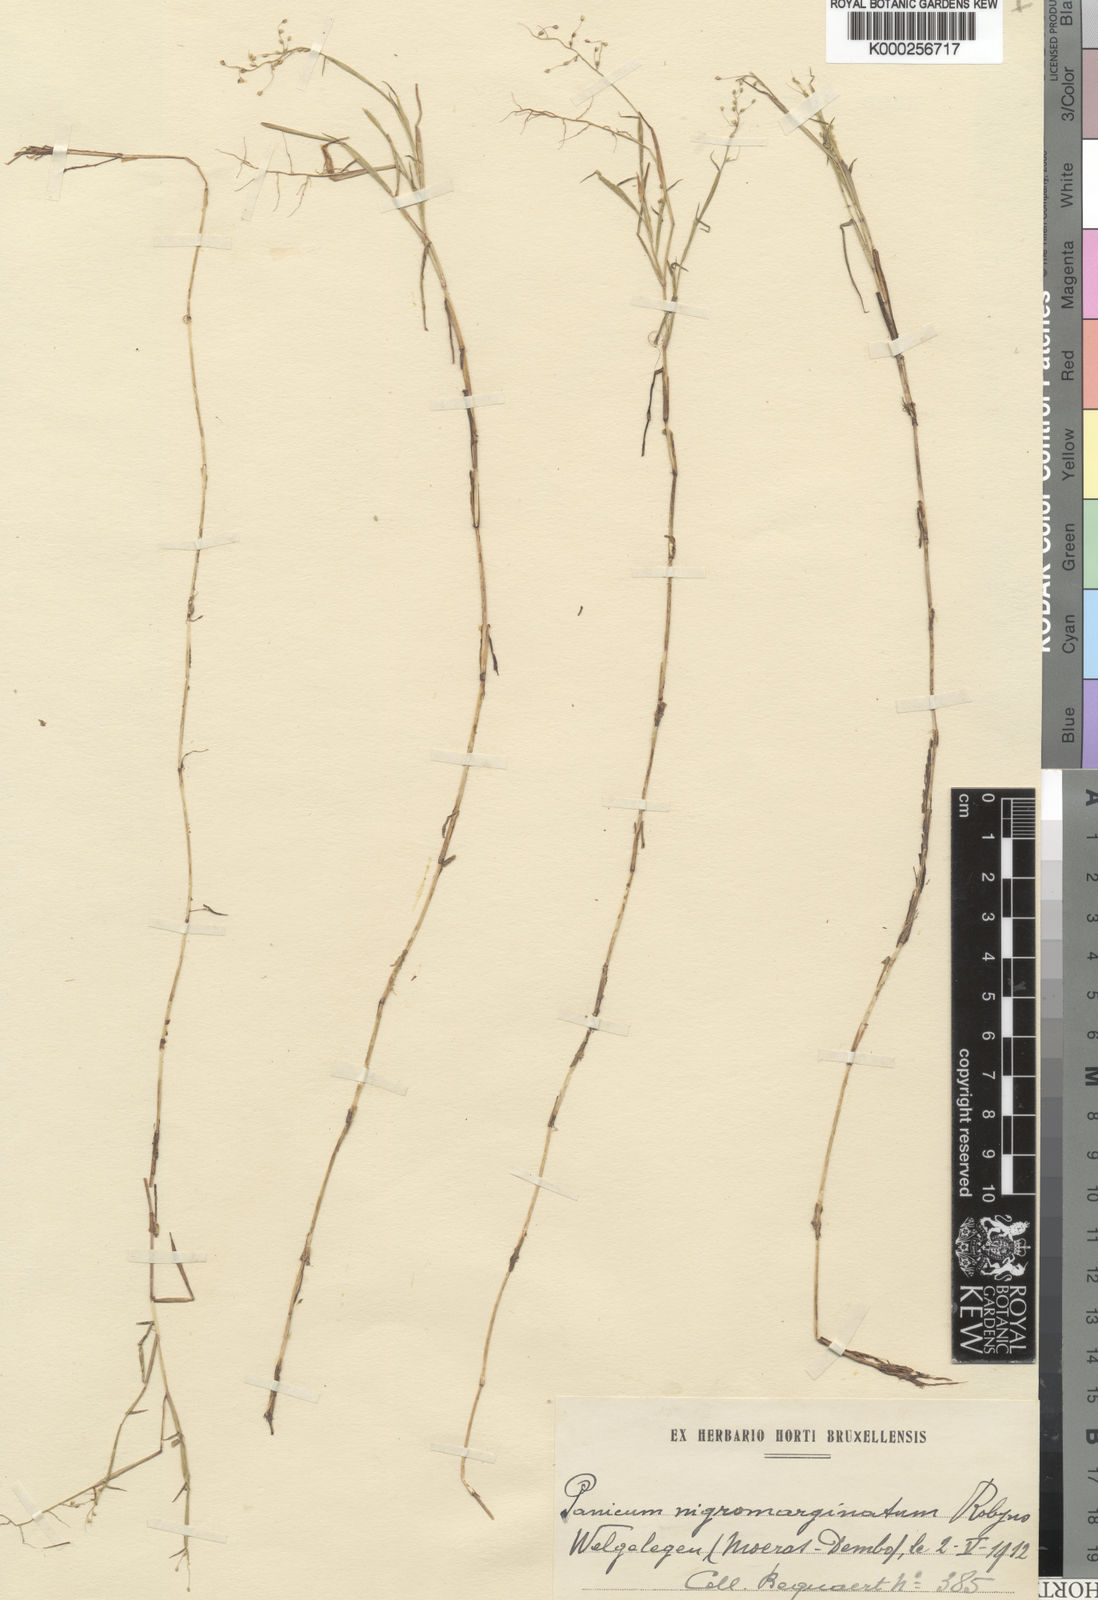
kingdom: Plantae
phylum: Tracheophyta
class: Liliopsida
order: Poales
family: Poaceae
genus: Adenochloa
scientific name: Adenochloa nigromarginata
